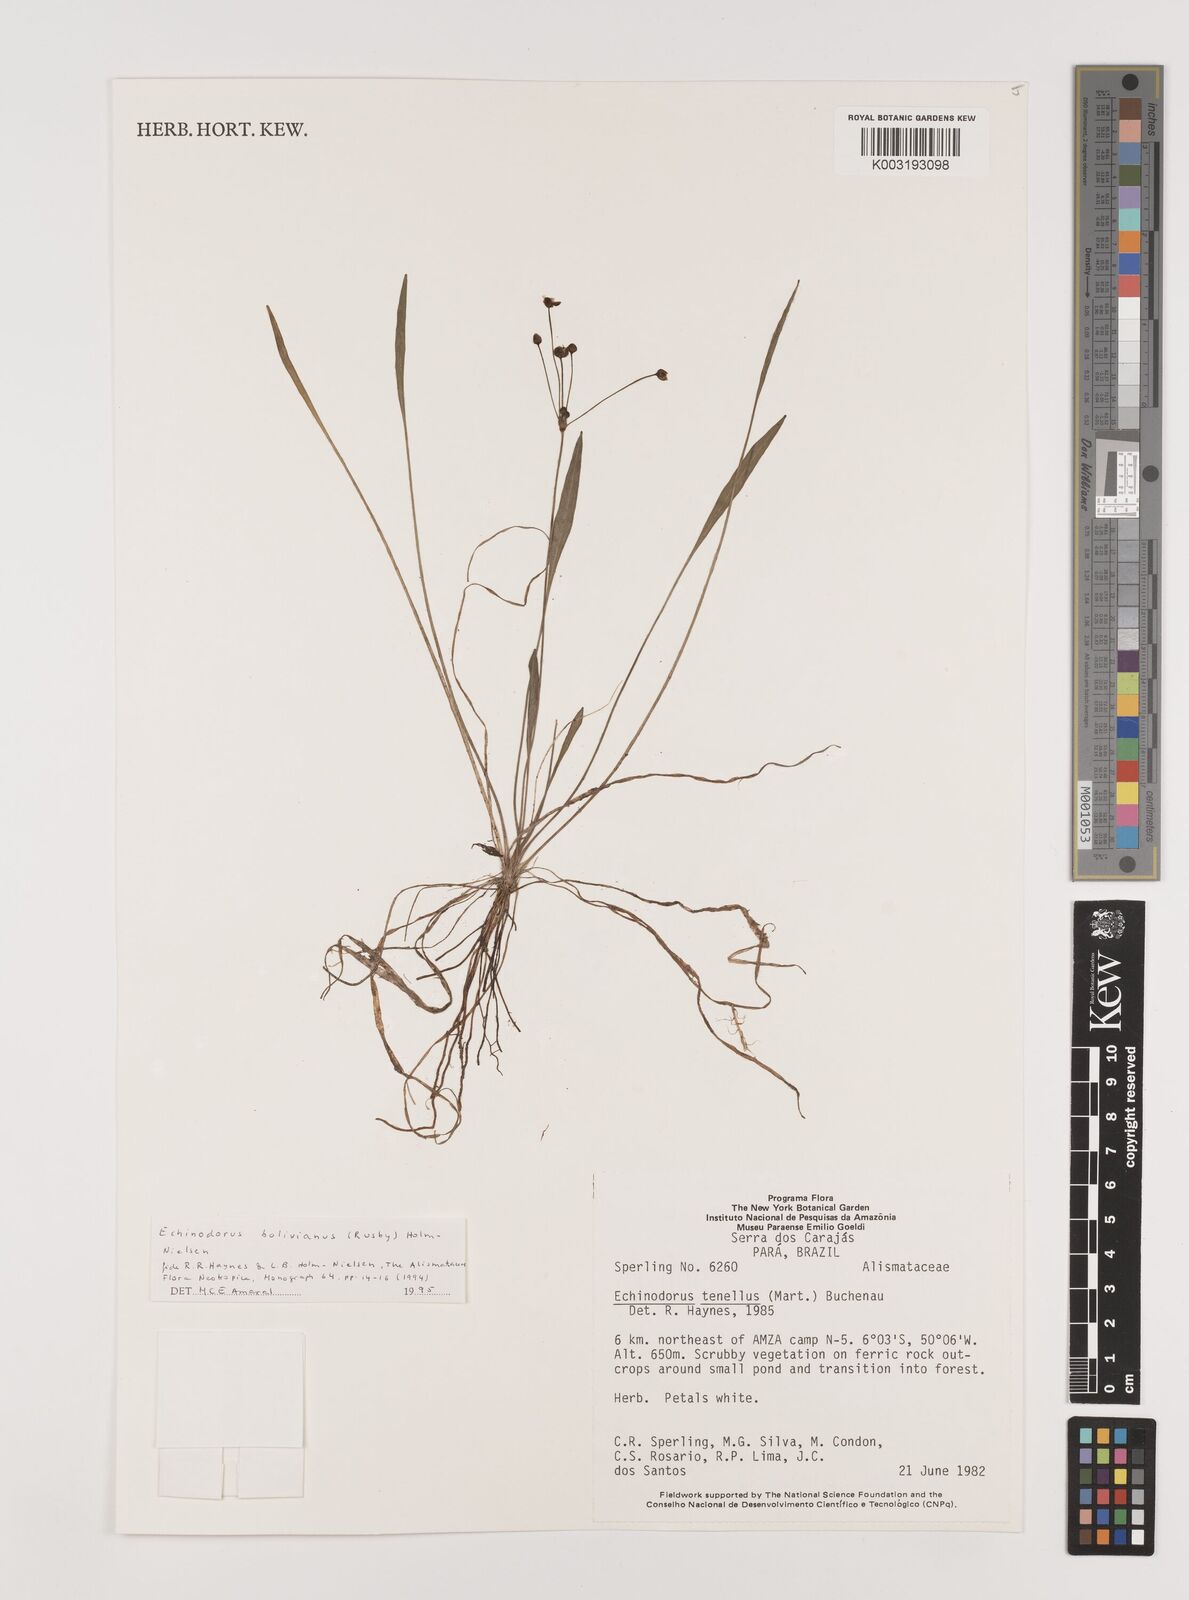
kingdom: Plantae
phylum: Tracheophyta
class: Liliopsida
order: Alismatales
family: Alismataceae
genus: Helanthium
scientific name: Helanthium bolivianum
